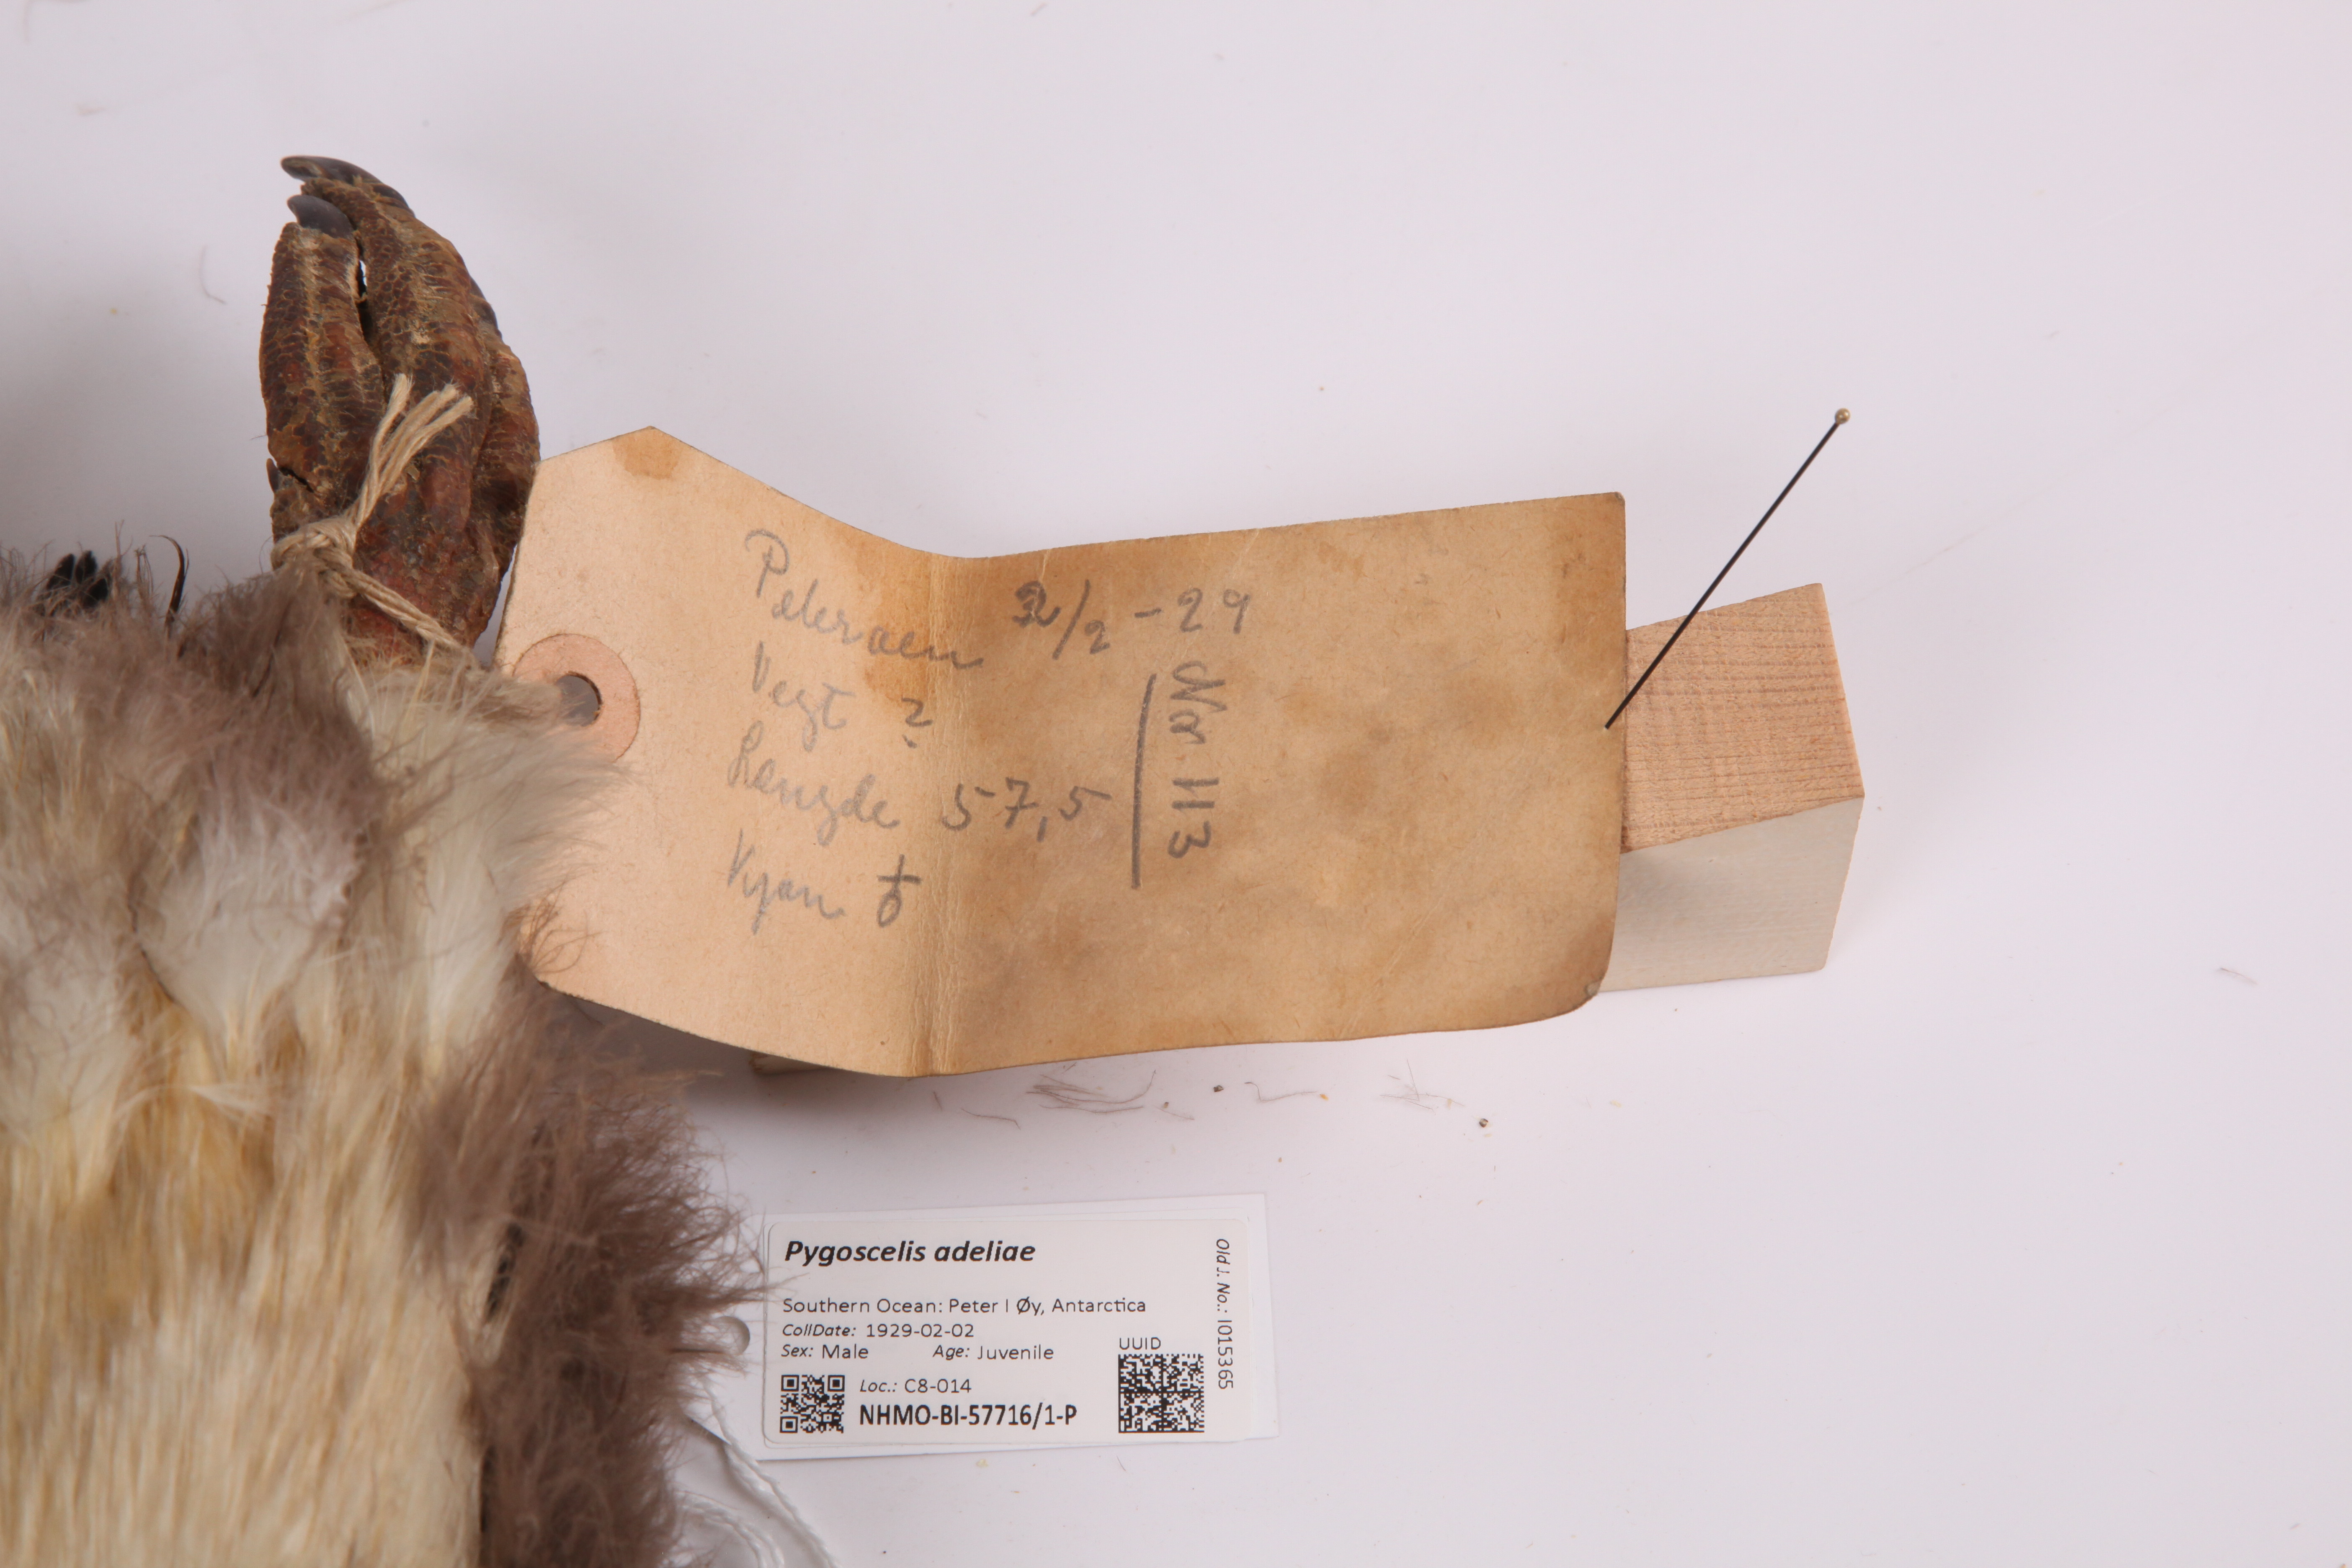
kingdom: Animalia
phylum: Chordata
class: Aves
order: Sphenisciformes
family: Spheniscidae
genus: Pygoscelis
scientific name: Pygoscelis adeliae
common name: Adelie penguin
